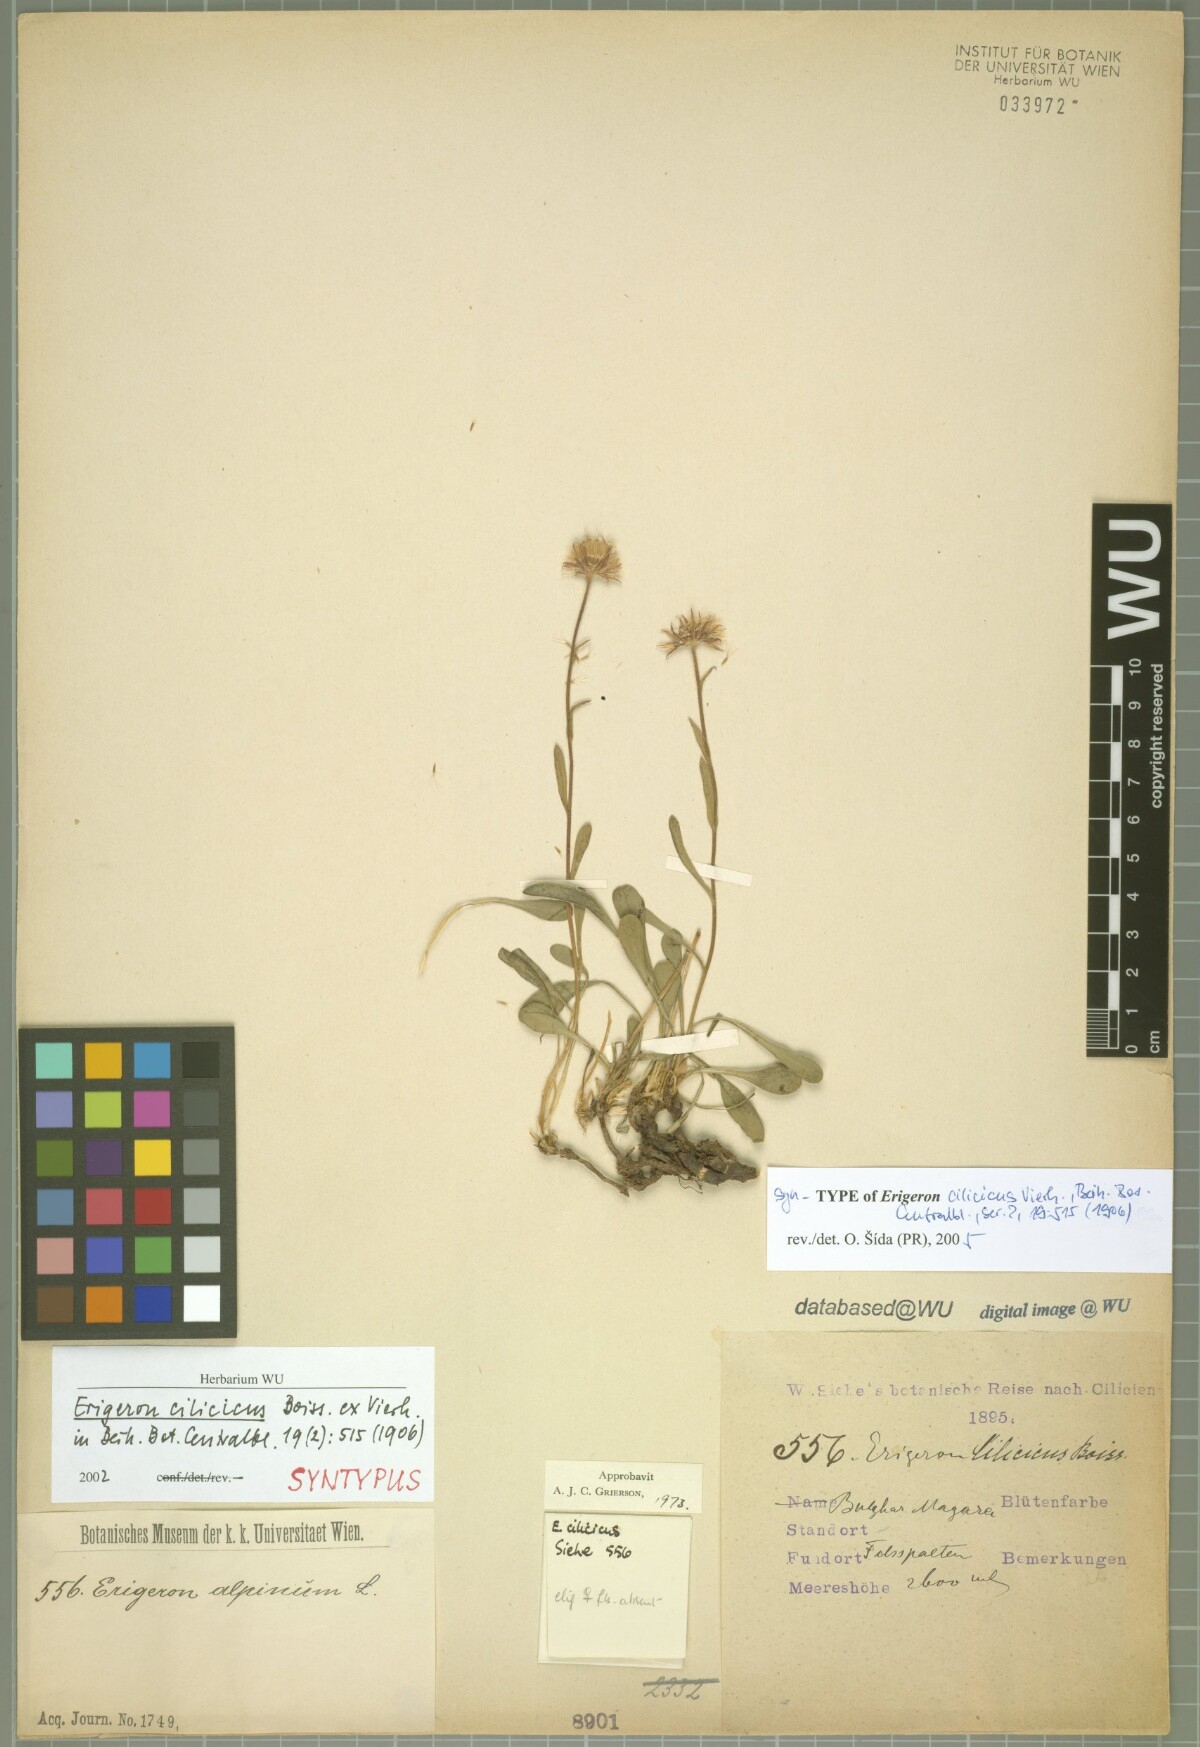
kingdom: Plantae
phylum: Tracheophyta
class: Magnoliopsida
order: Asterales
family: Asteraceae
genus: Erigeron
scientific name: Erigeron cilicicus
